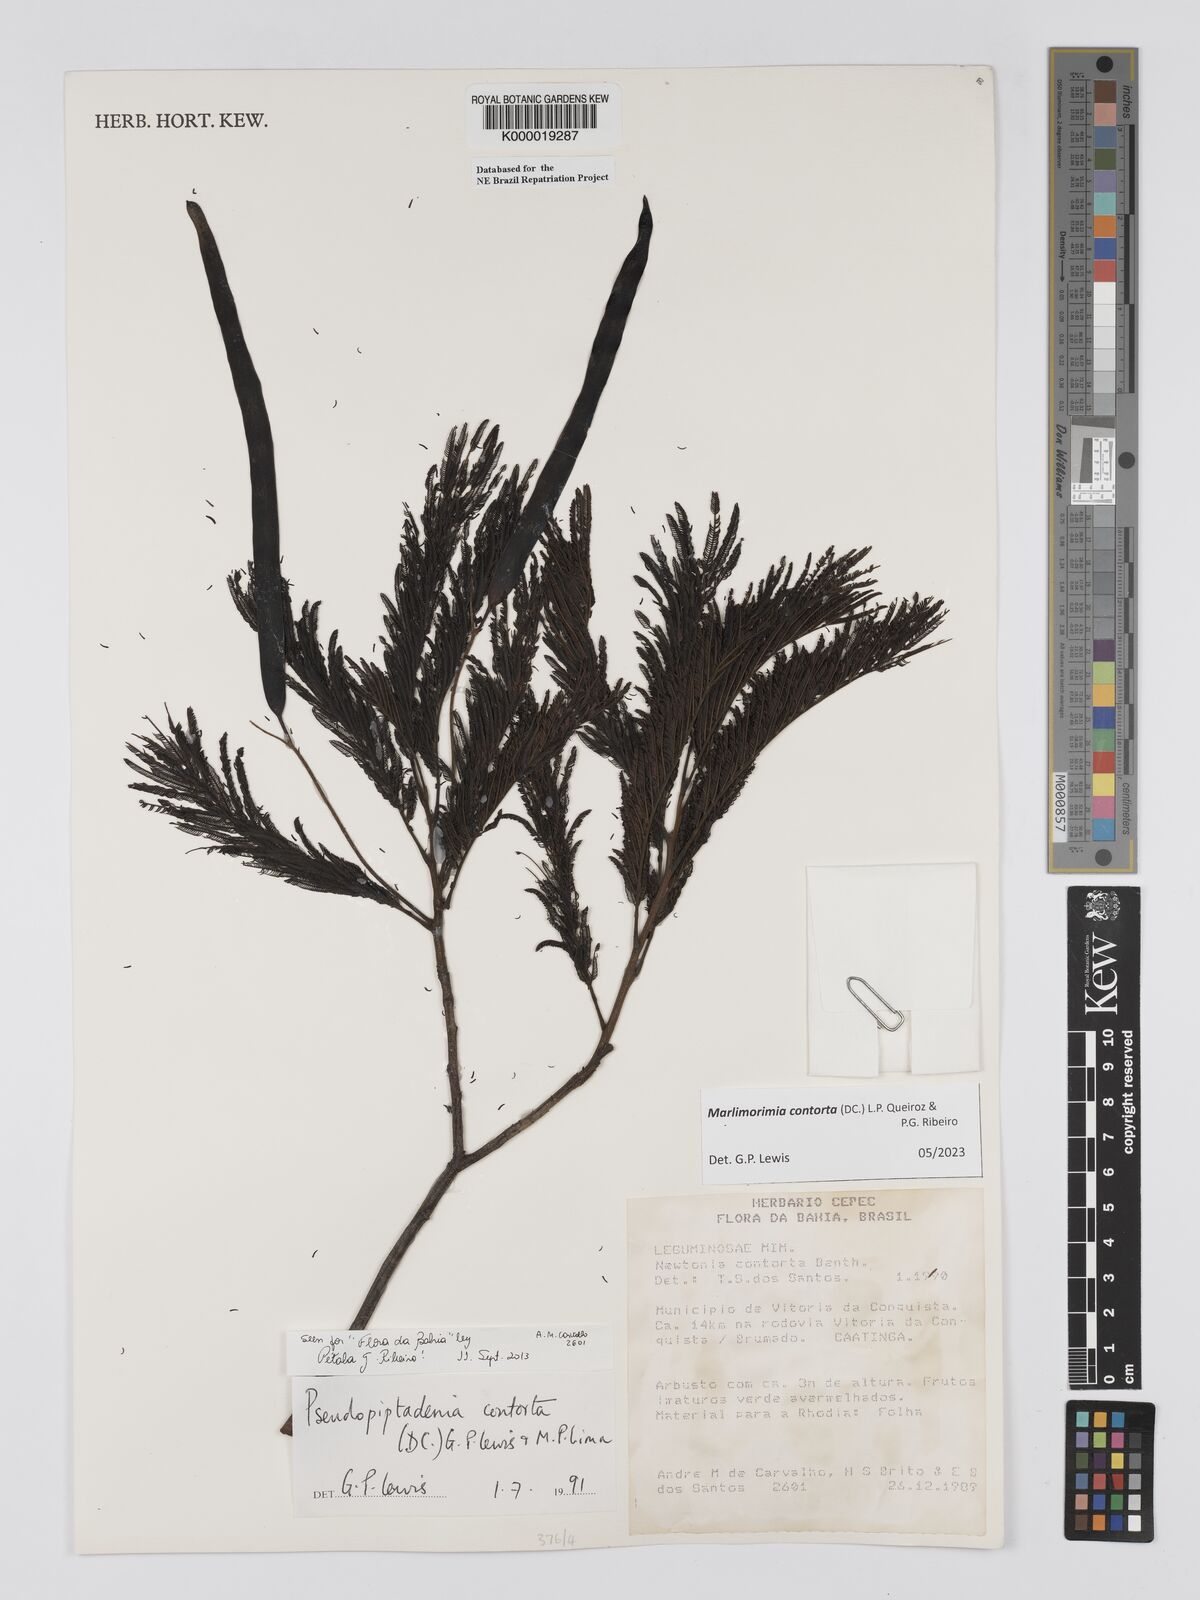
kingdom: Plantae
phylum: Tracheophyta
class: Magnoliopsida
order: Fabales
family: Fabaceae
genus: Pseudopiptadenia
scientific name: Pseudopiptadenia contorta
